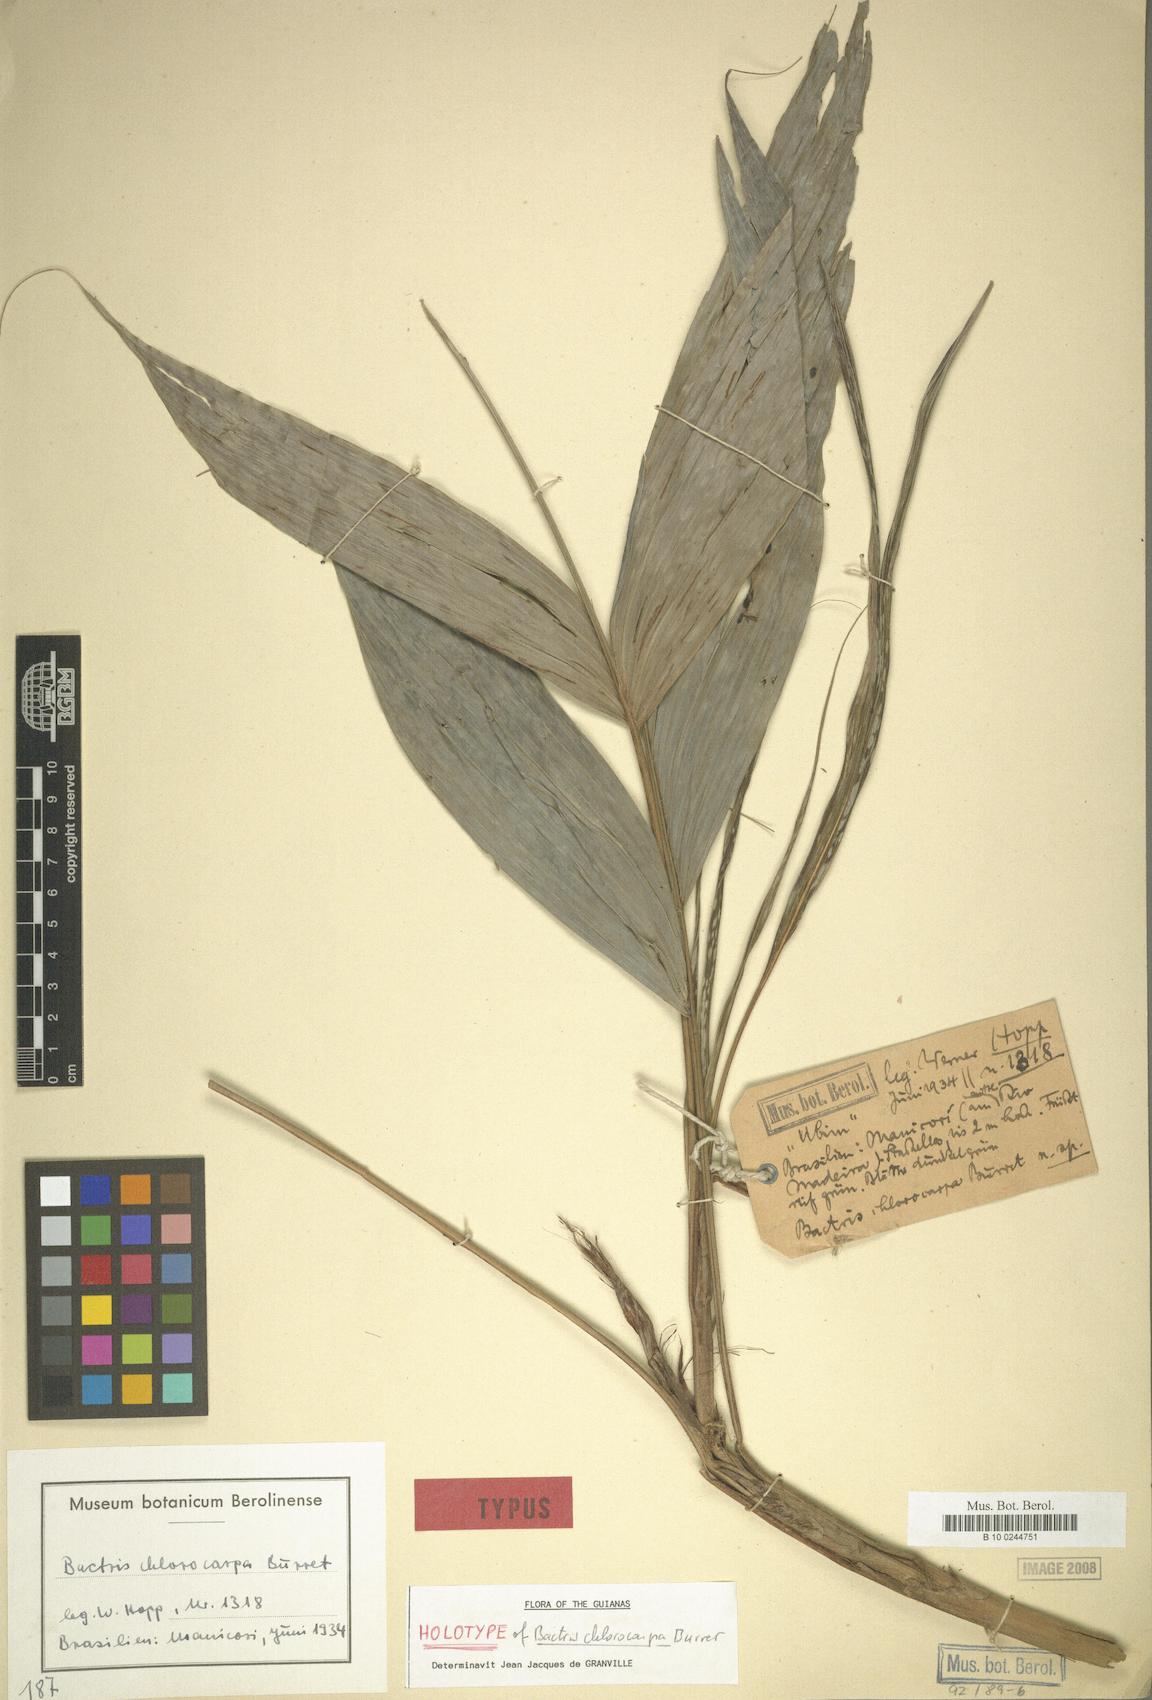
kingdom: Plantae
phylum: Tracheophyta
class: Liliopsida
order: Arecales
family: Arecaceae
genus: Bactris
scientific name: Bactris maraja
